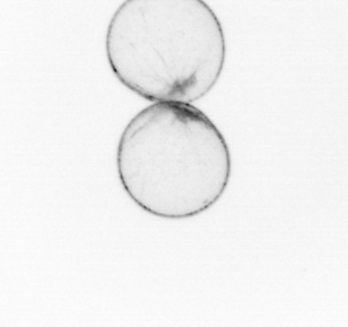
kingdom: Chromista
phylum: Myzozoa
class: Dinophyceae
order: Noctilucales
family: Noctilucaceae
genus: Noctiluca
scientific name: Noctiluca scintillans
